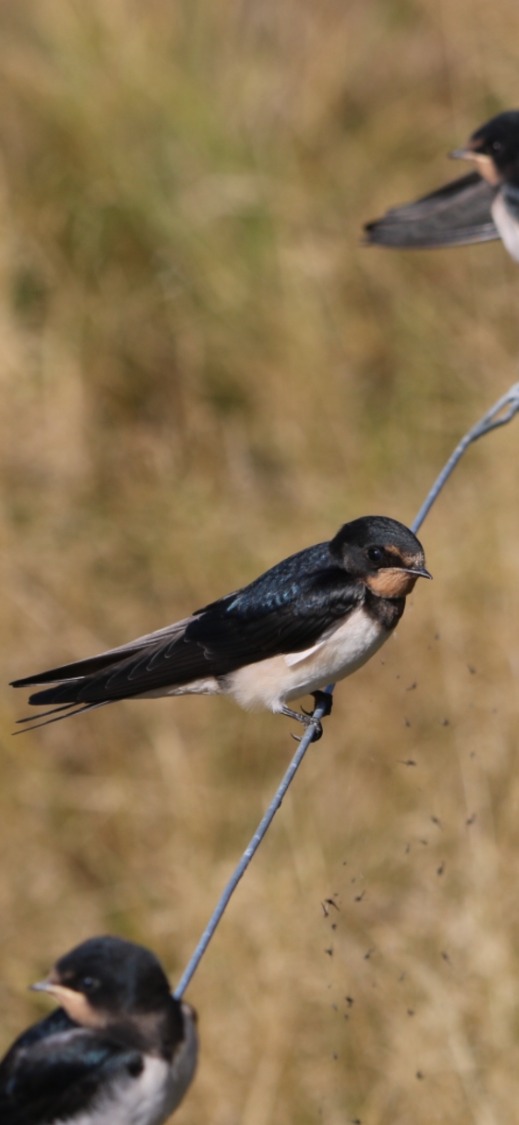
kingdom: Animalia
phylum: Chordata
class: Aves
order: Passeriformes
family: Hirundinidae
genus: Hirundo
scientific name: Hirundo rustica
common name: Landsvale
